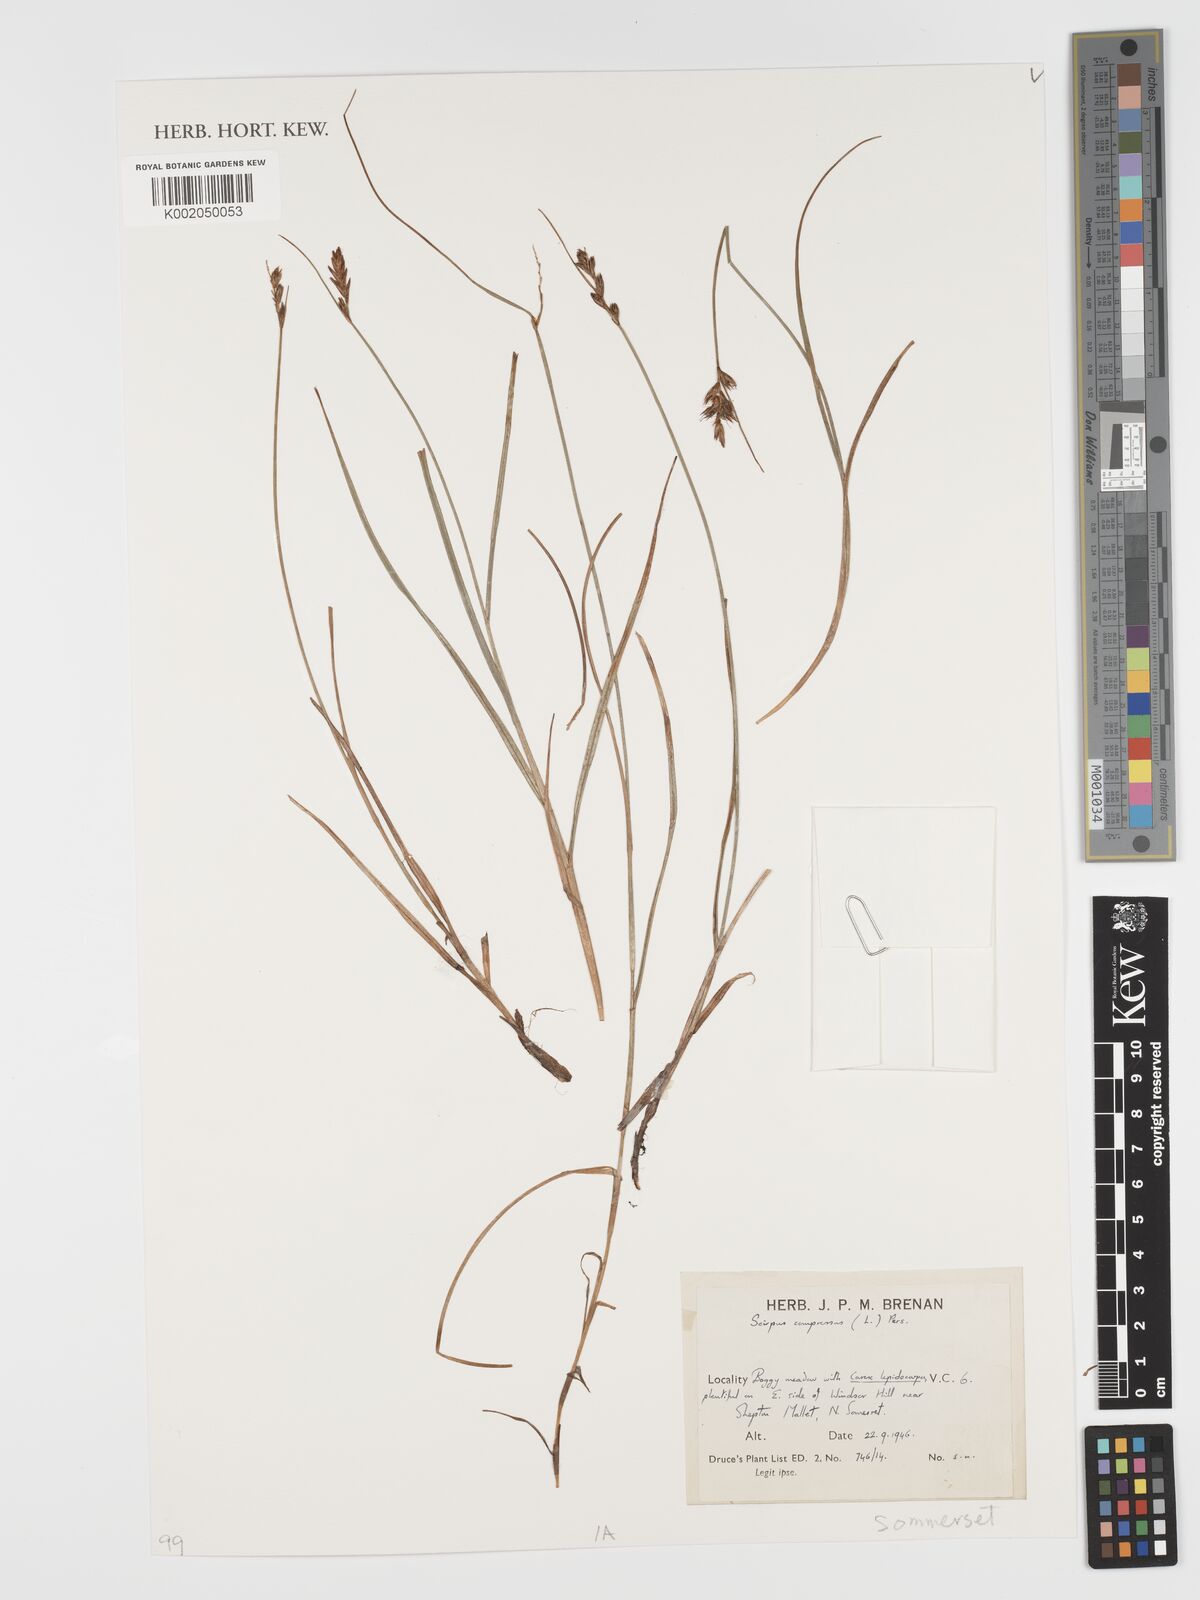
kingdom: Plantae
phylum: Tracheophyta
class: Liliopsida
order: Poales
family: Cyperaceae
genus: Blysmus
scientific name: Blysmus compressus
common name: Flat-sedge
